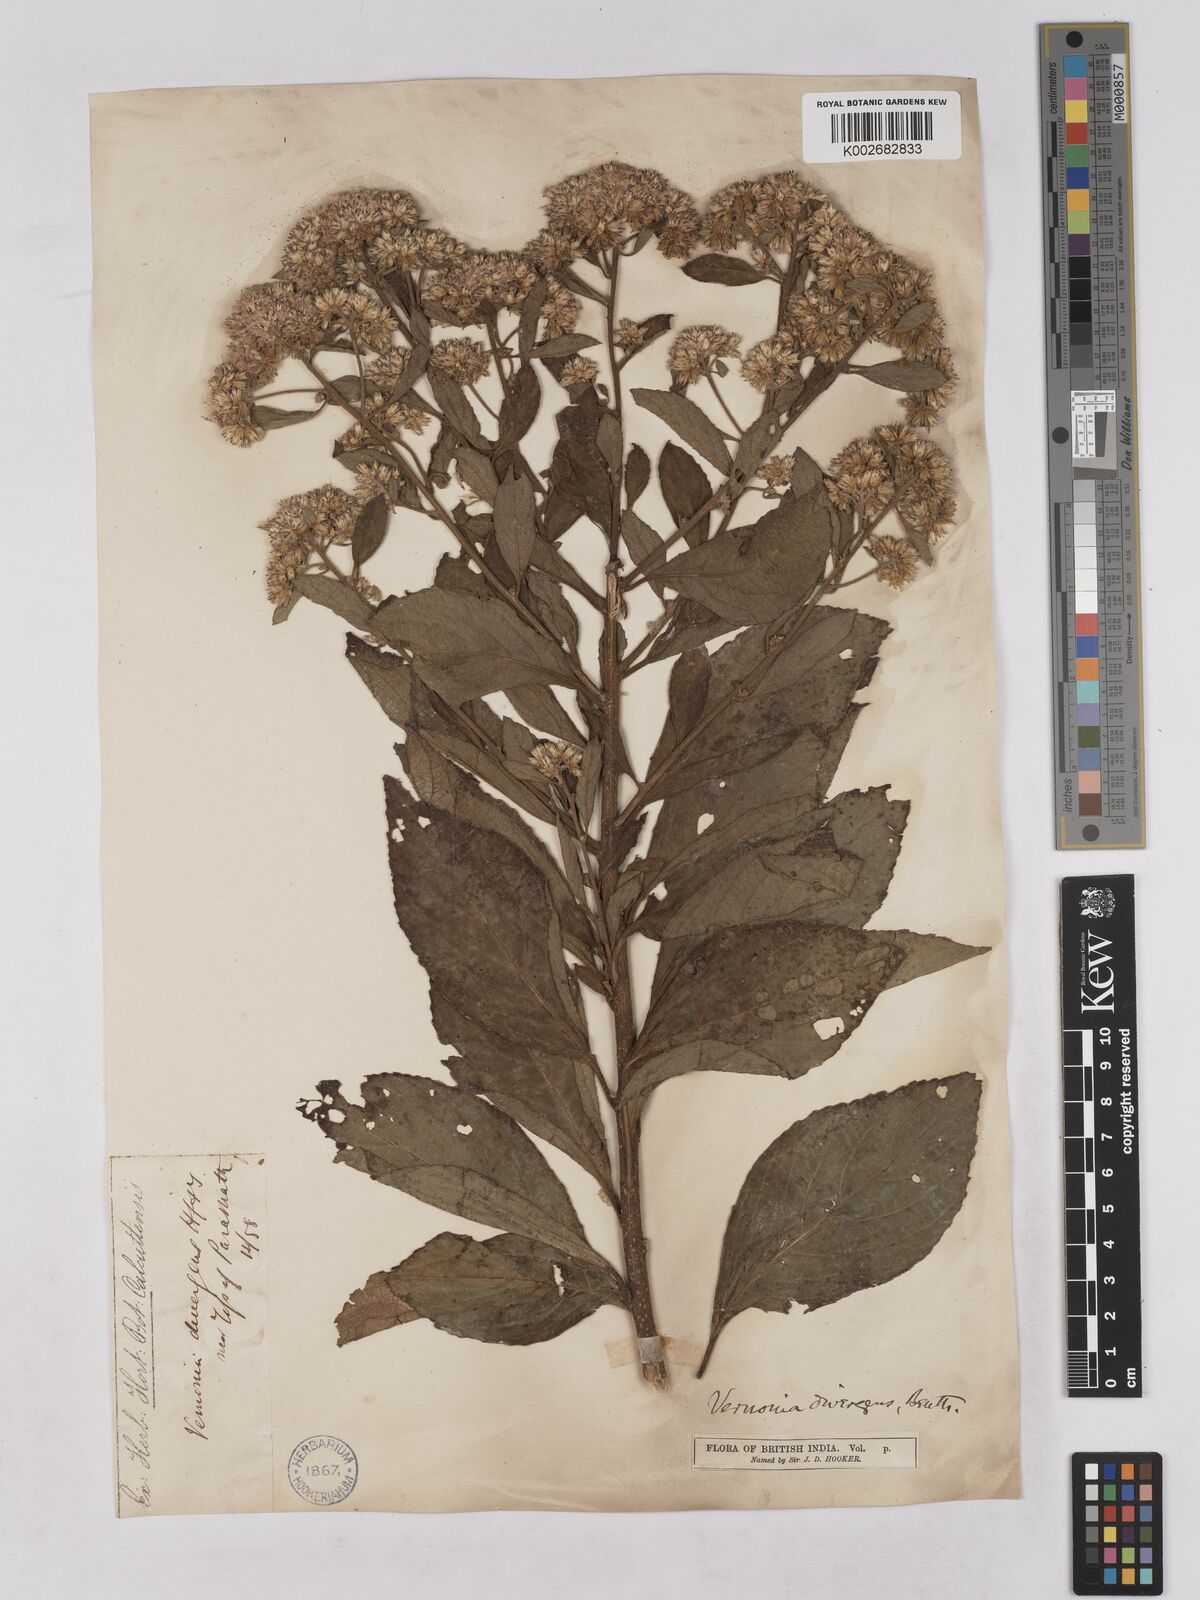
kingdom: Plantae
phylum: Tracheophyta
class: Magnoliopsida
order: Asterales
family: Asteraceae
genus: Acilepis
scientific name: Acilepis divergens
